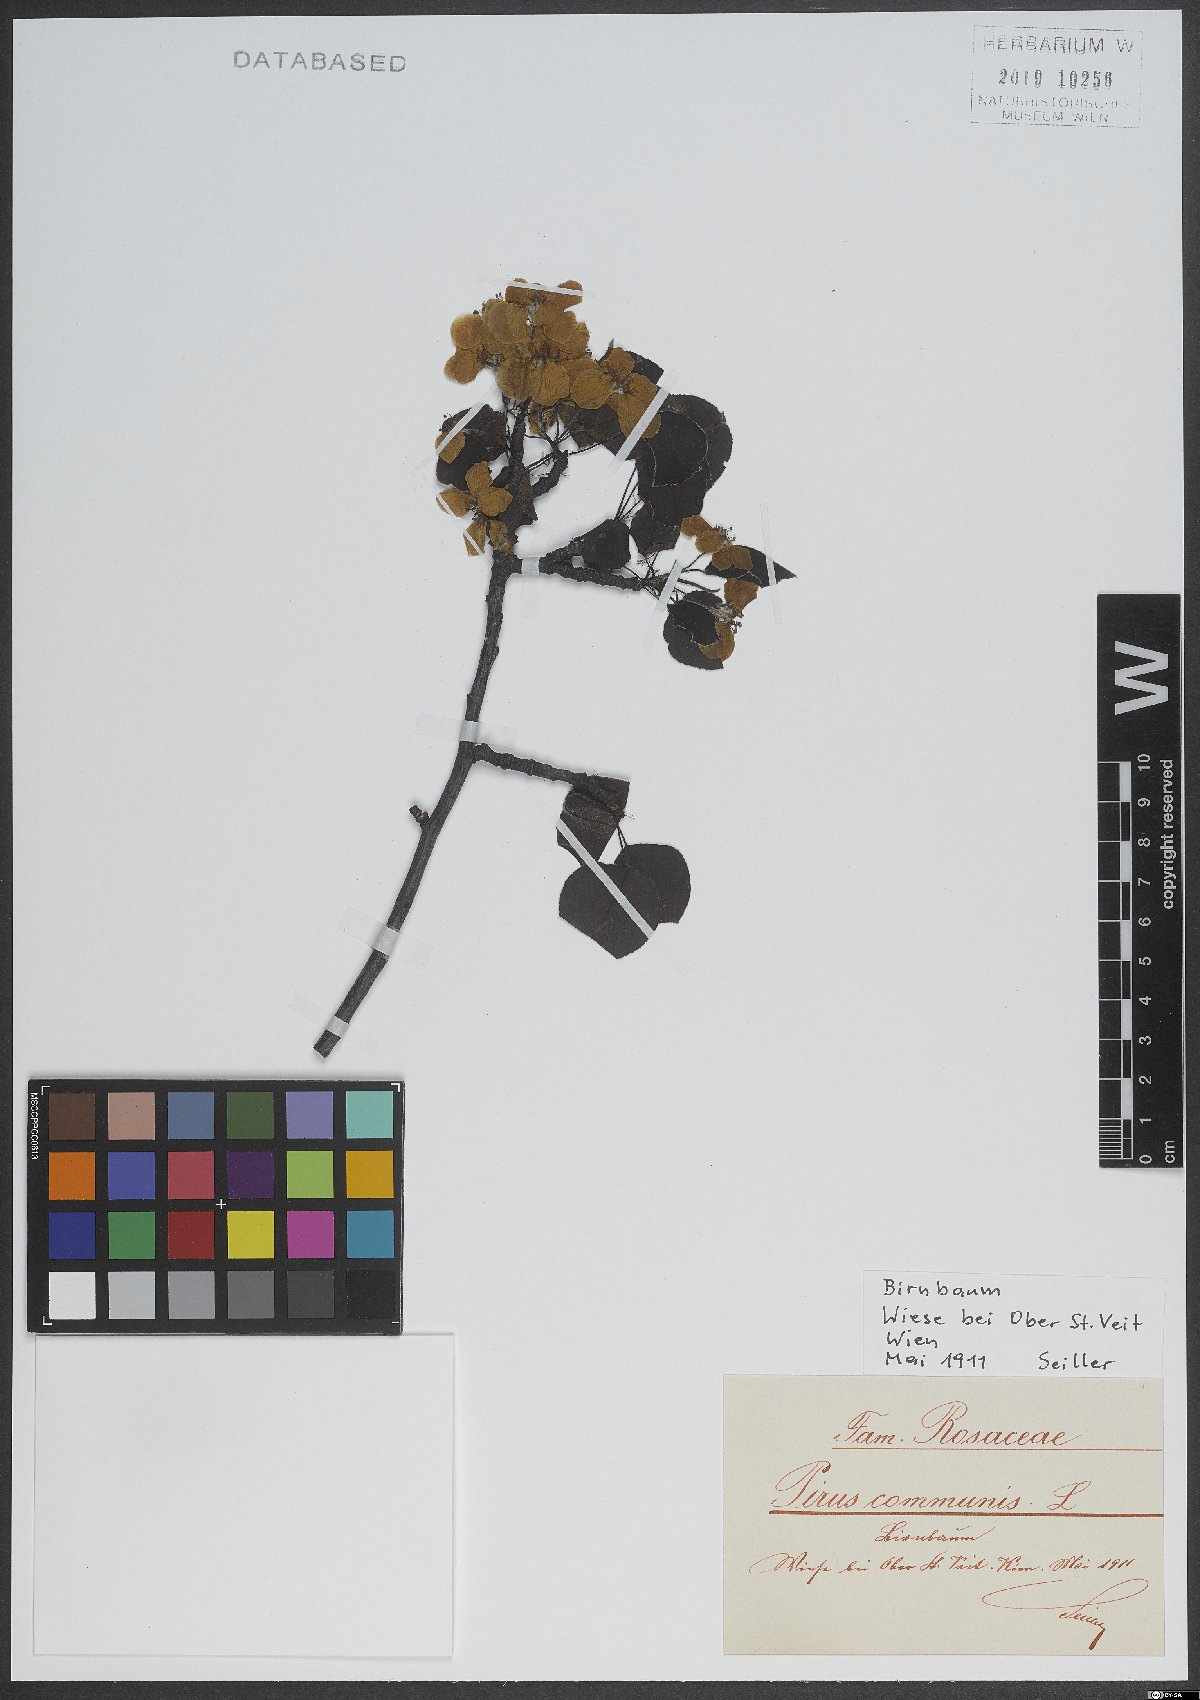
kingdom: Plantae
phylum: Tracheophyta
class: Magnoliopsida
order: Rosales
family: Rosaceae
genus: Pyrus
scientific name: Pyrus communis
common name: Pear
